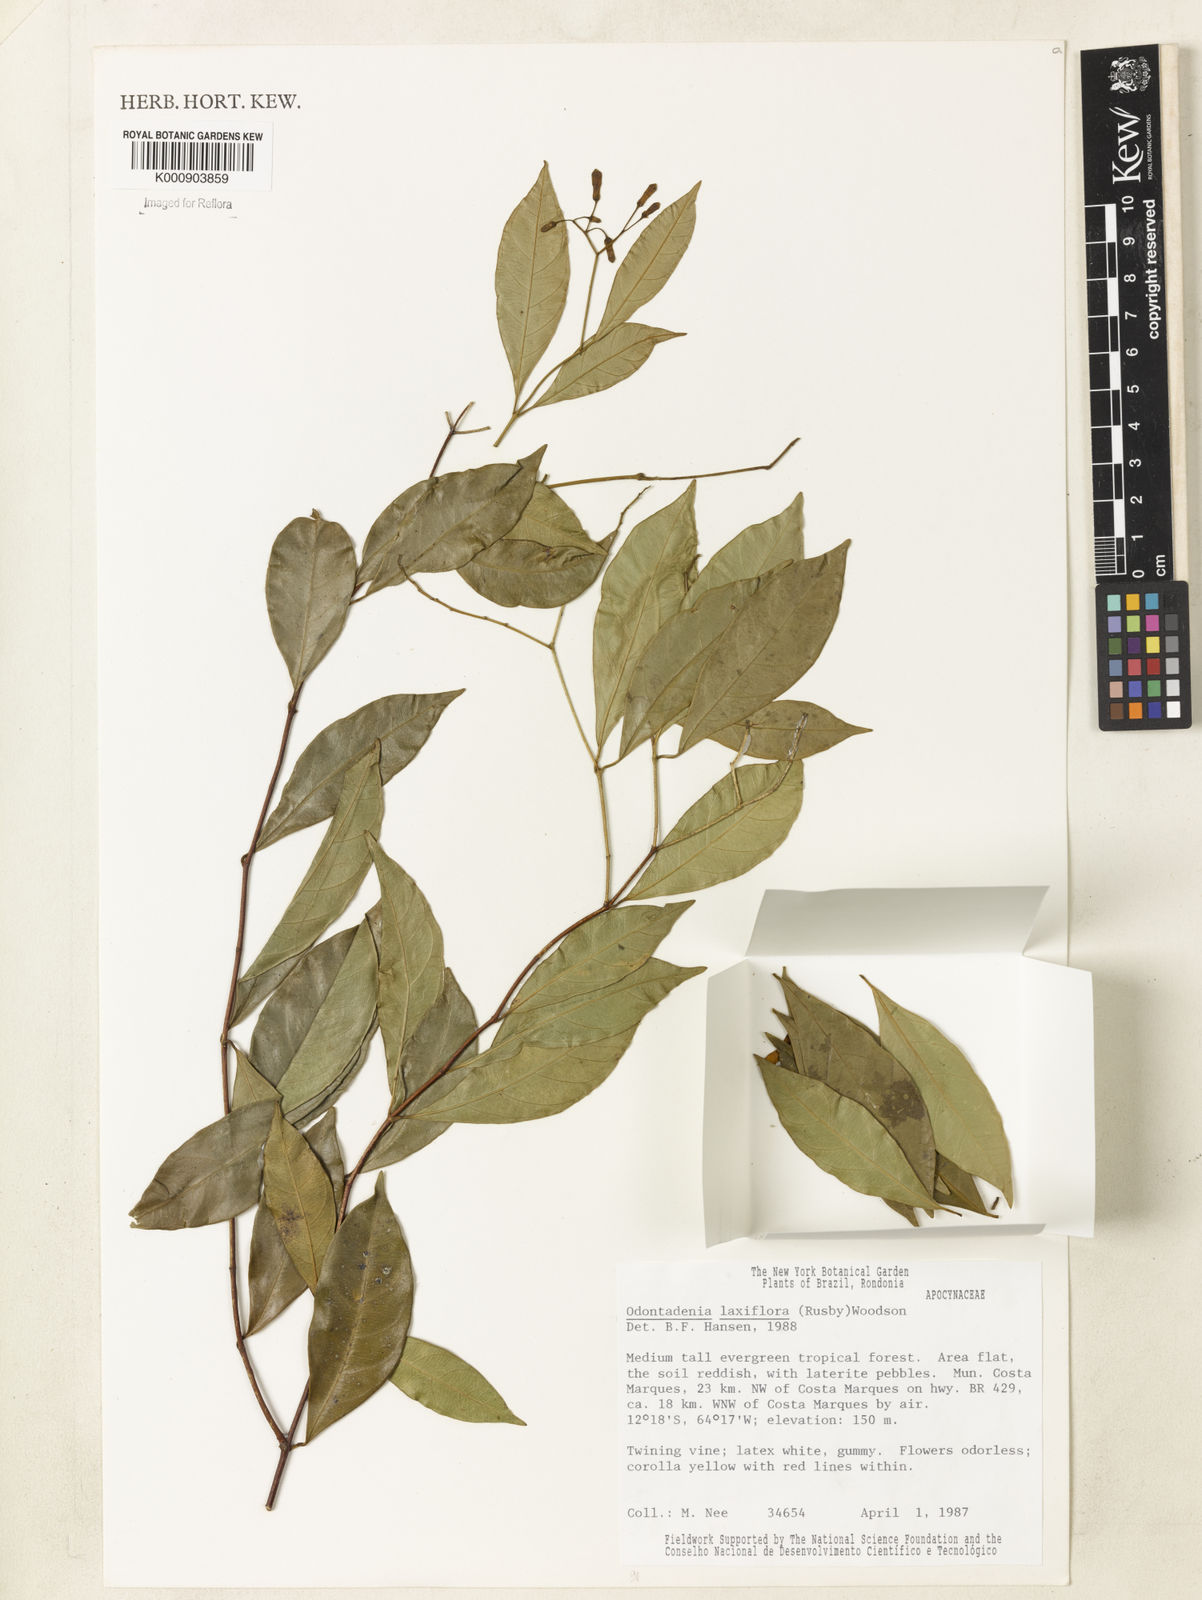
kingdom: Plantae
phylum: Tracheophyta
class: Magnoliopsida
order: Gentianales
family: Apocynaceae
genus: Odontadenia
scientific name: Odontadenia laxiflora
